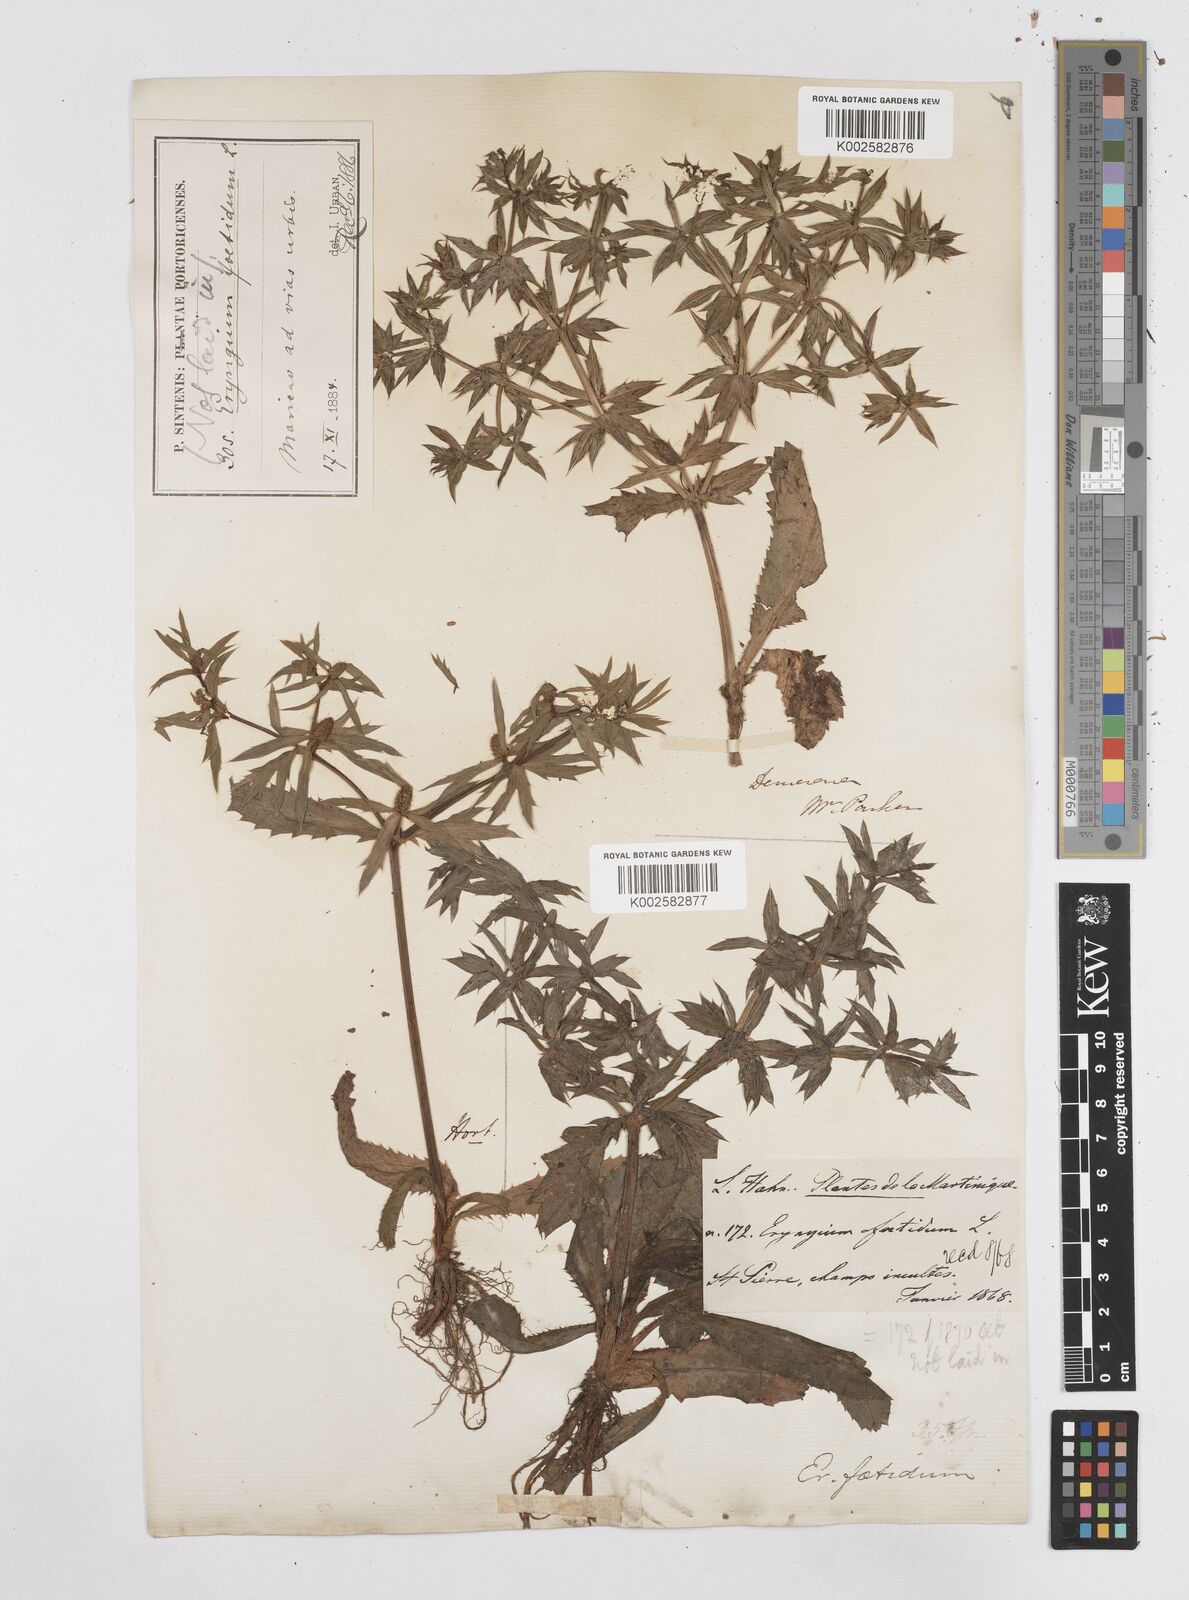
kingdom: Plantae
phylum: Tracheophyta
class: Magnoliopsida
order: Apiales
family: Apiaceae
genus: Eryngium
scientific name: Eryngium foetidum
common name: Fitweed
